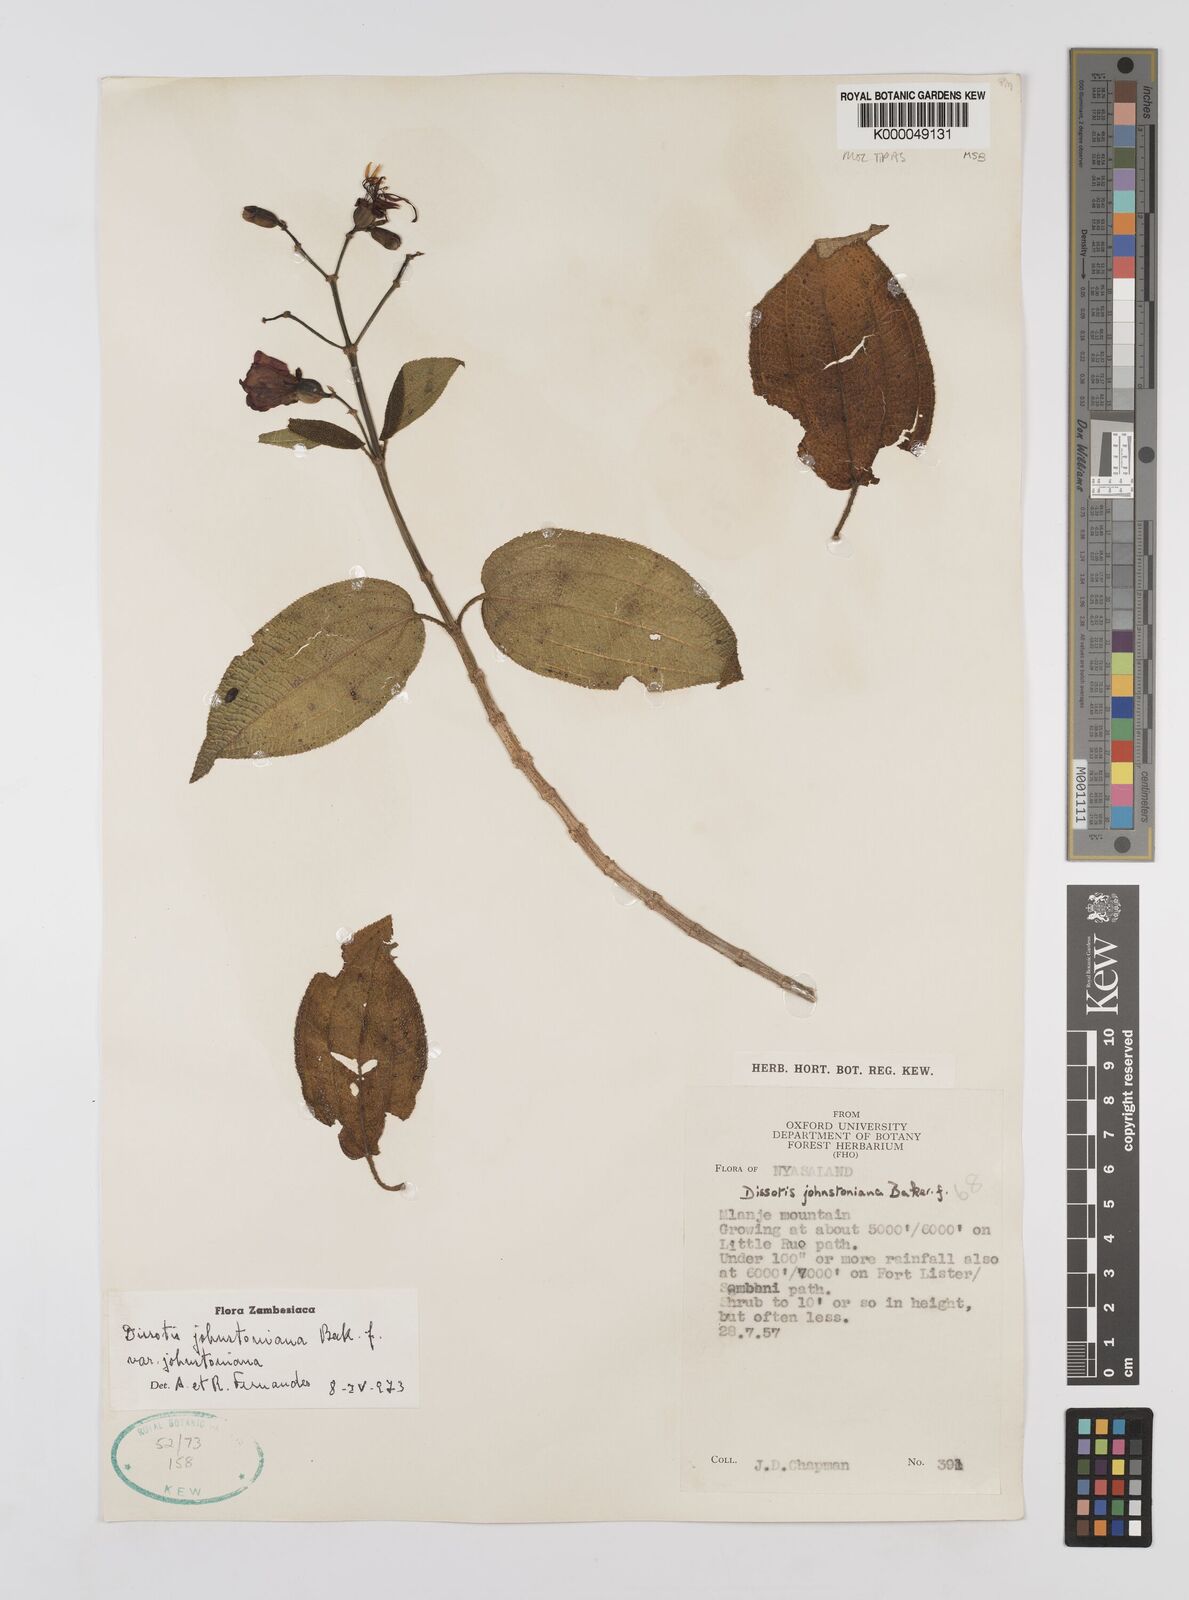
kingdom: Plantae
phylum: Tracheophyta
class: Magnoliopsida
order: Myrtales
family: Melastomataceae
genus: Dissotidendron
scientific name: Dissotidendron johnstonianum
